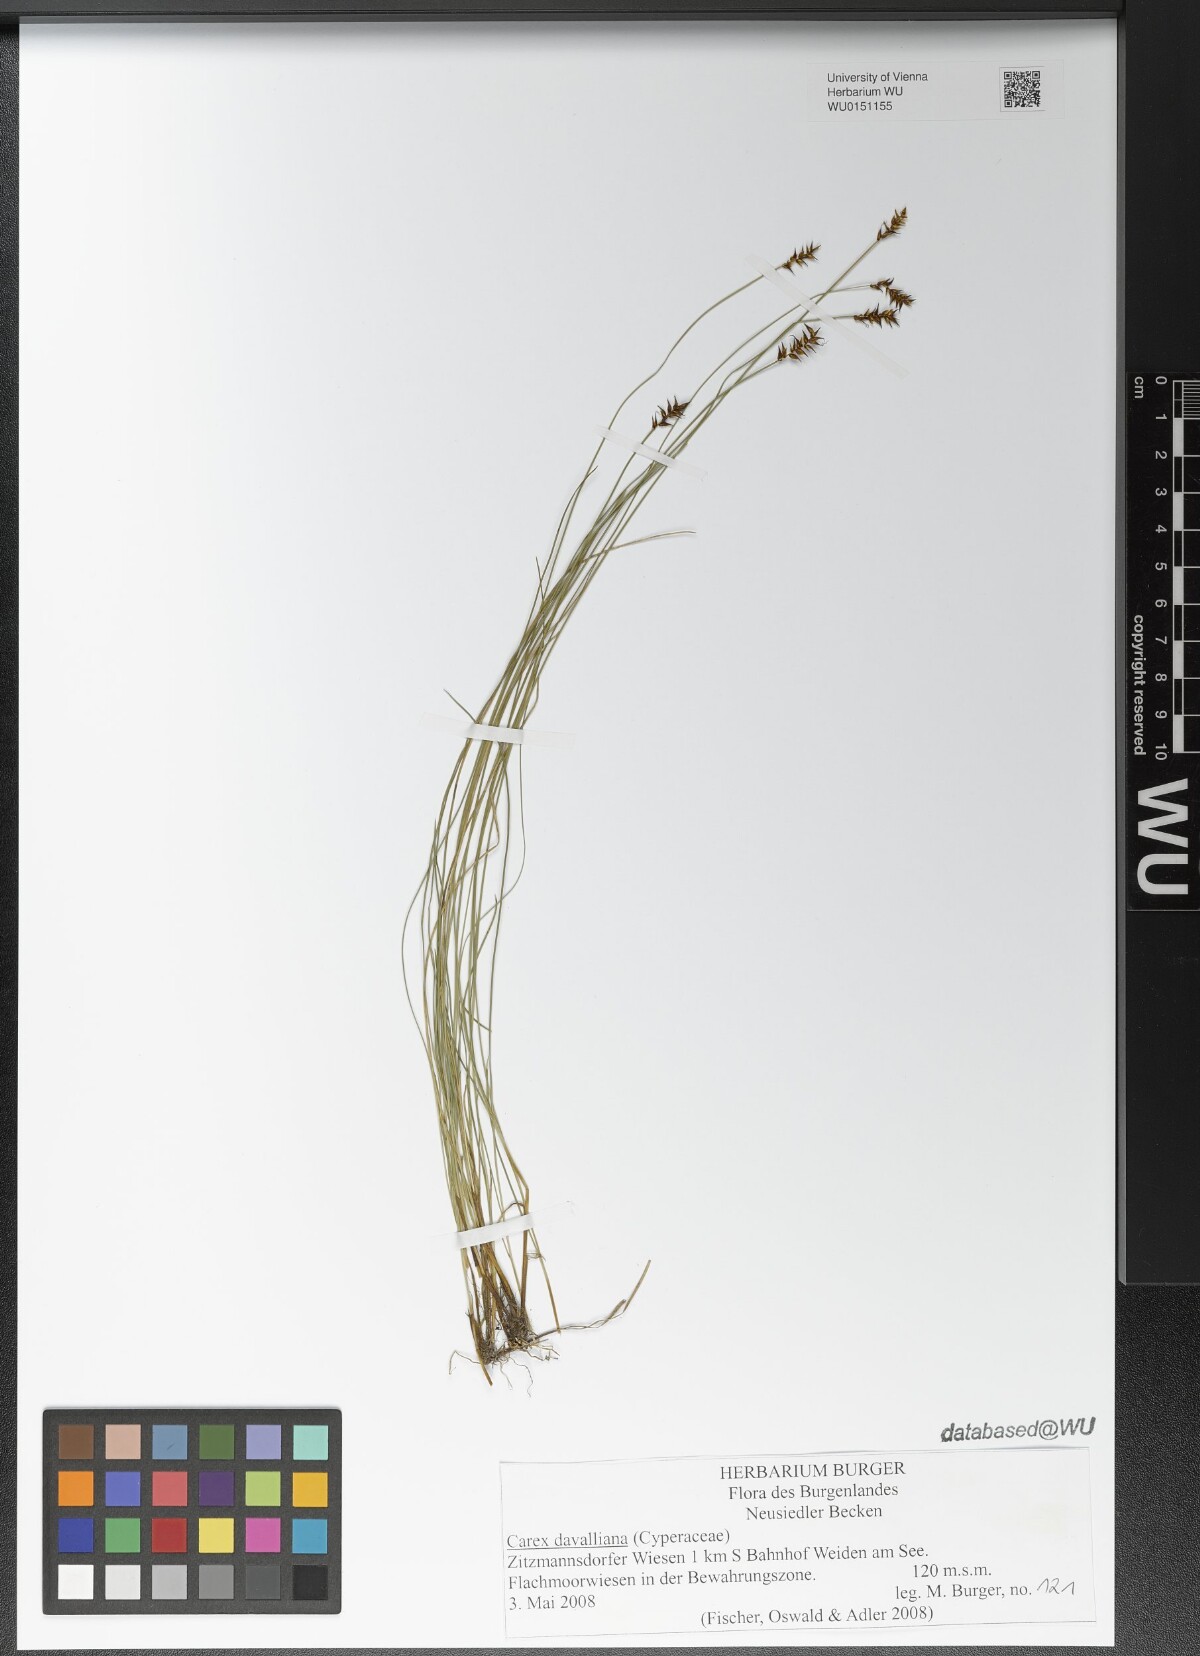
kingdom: Plantae
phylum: Tracheophyta
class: Liliopsida
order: Poales
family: Cyperaceae
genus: Carex
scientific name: Carex davalliana
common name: Davall's sedge
